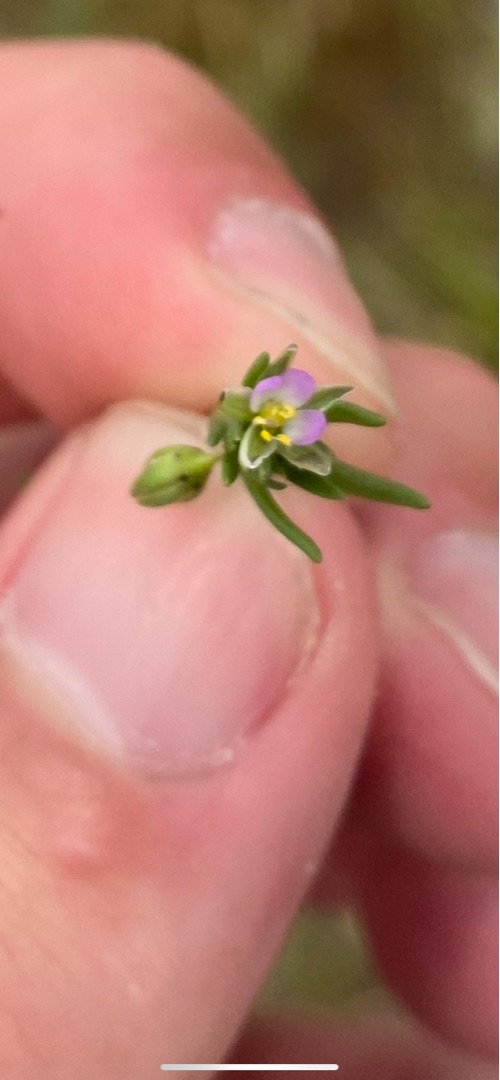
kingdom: Plantae
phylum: Tracheophyta
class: Magnoliopsida
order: Caryophyllales
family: Caryophyllaceae
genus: Spergularia
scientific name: Spergularia marina
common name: Kødet hindeknæ
